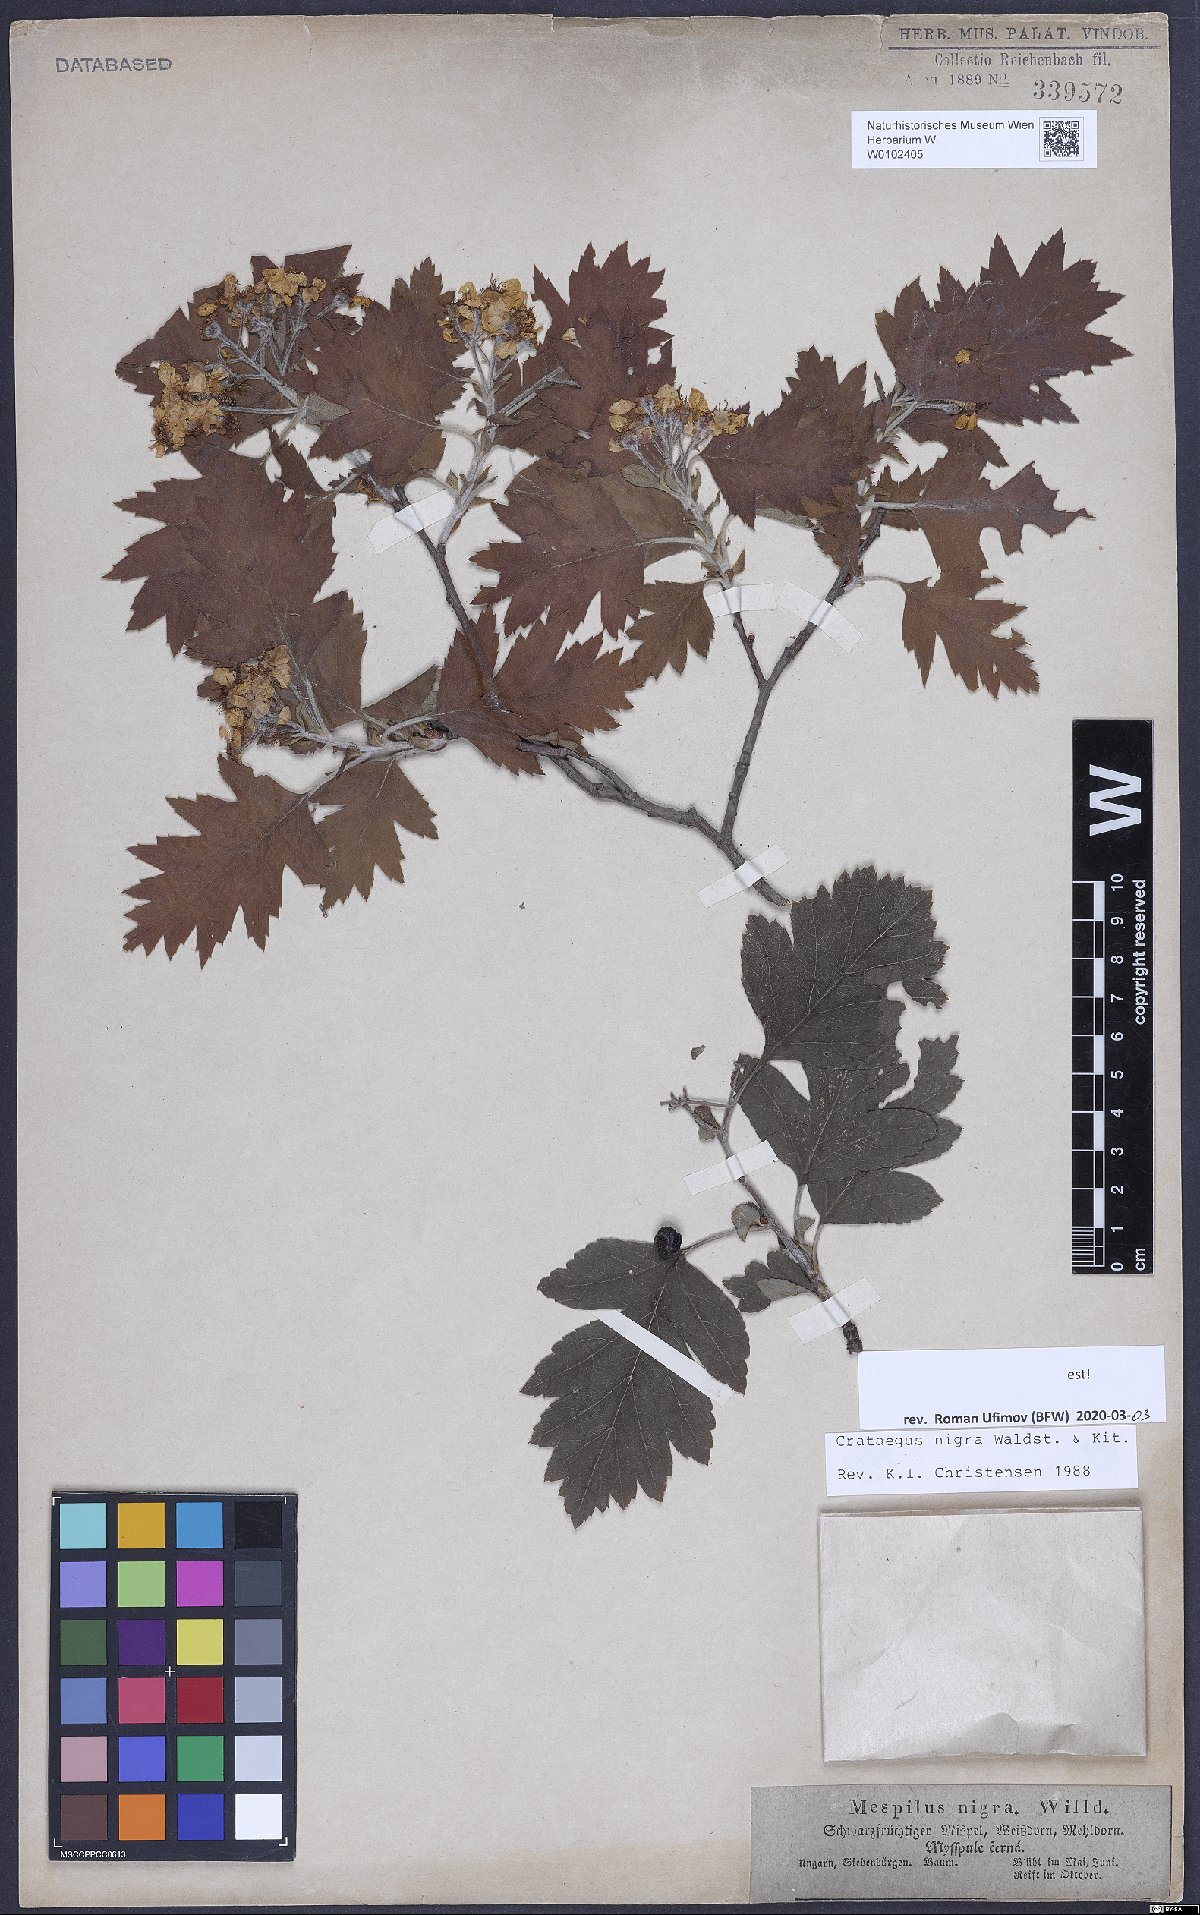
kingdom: Plantae
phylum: Tracheophyta
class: Magnoliopsida
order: Rosales
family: Rosaceae
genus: Crataegus
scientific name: Crataegus nigra
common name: Hungarian thorn
